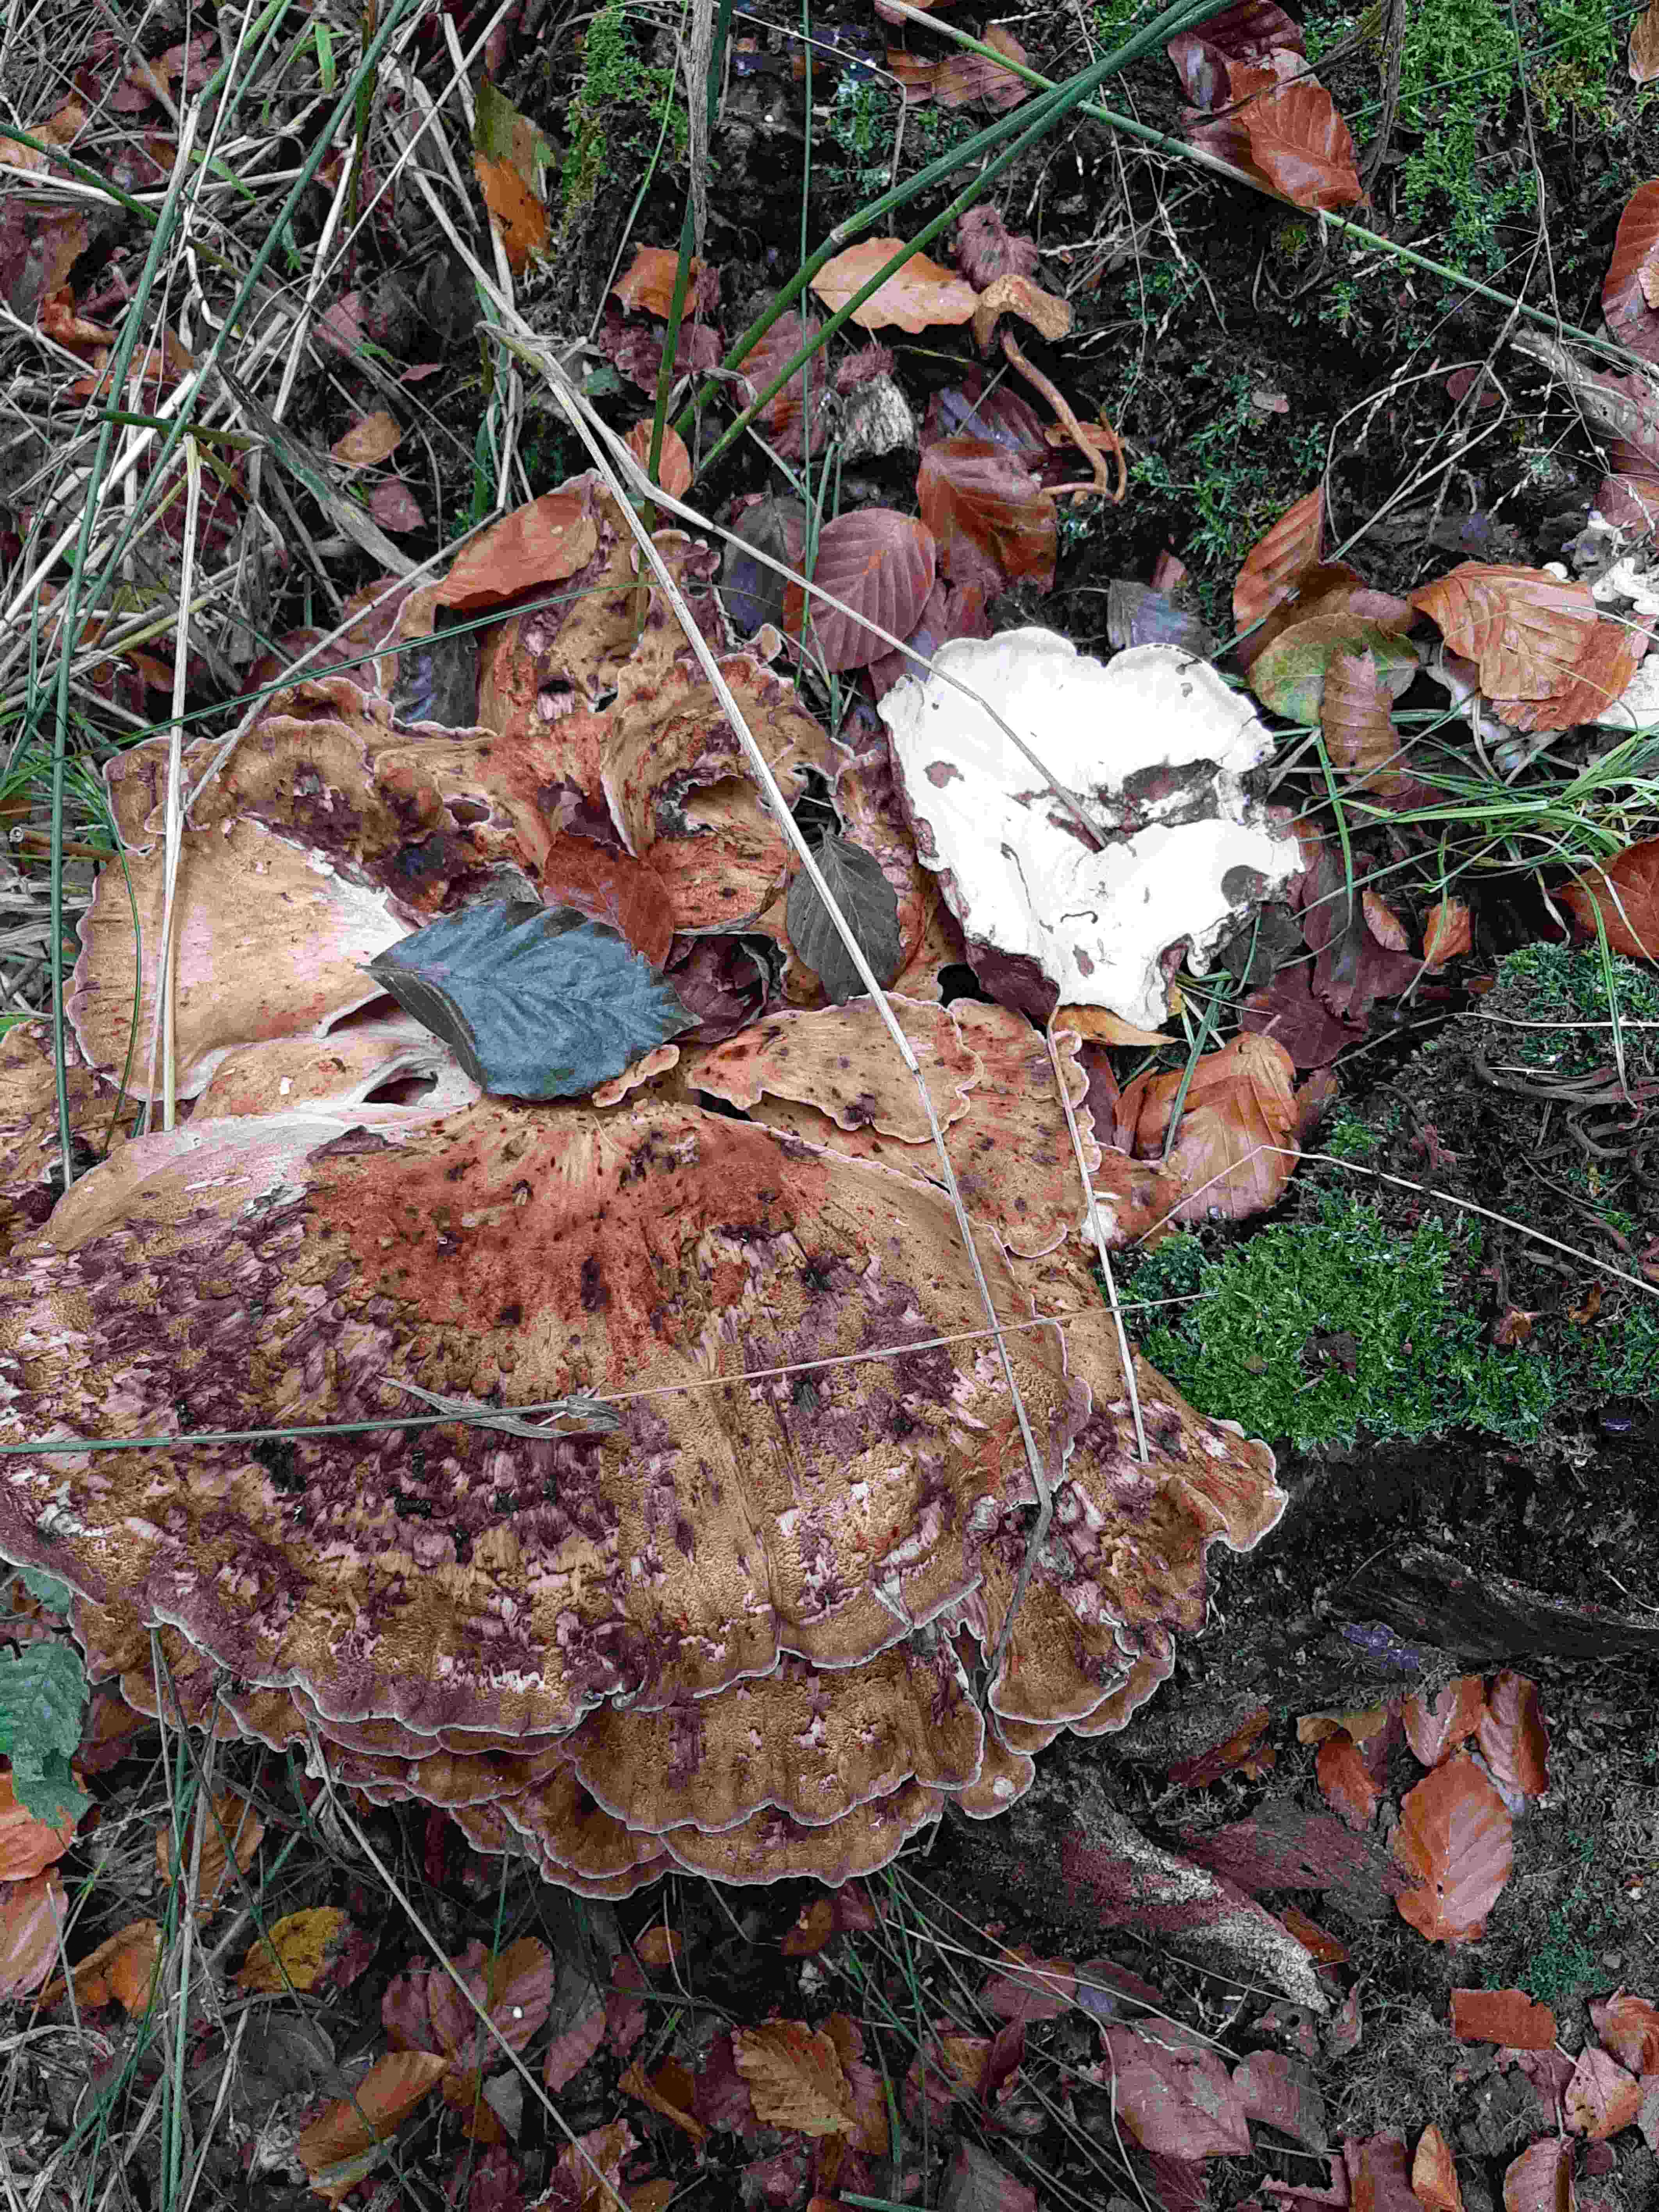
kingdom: Fungi
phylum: Basidiomycota
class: Agaricomycetes
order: Polyporales
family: Meripilaceae
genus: Meripilus
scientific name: Meripilus giganteus
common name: kæmpeporesvamp
